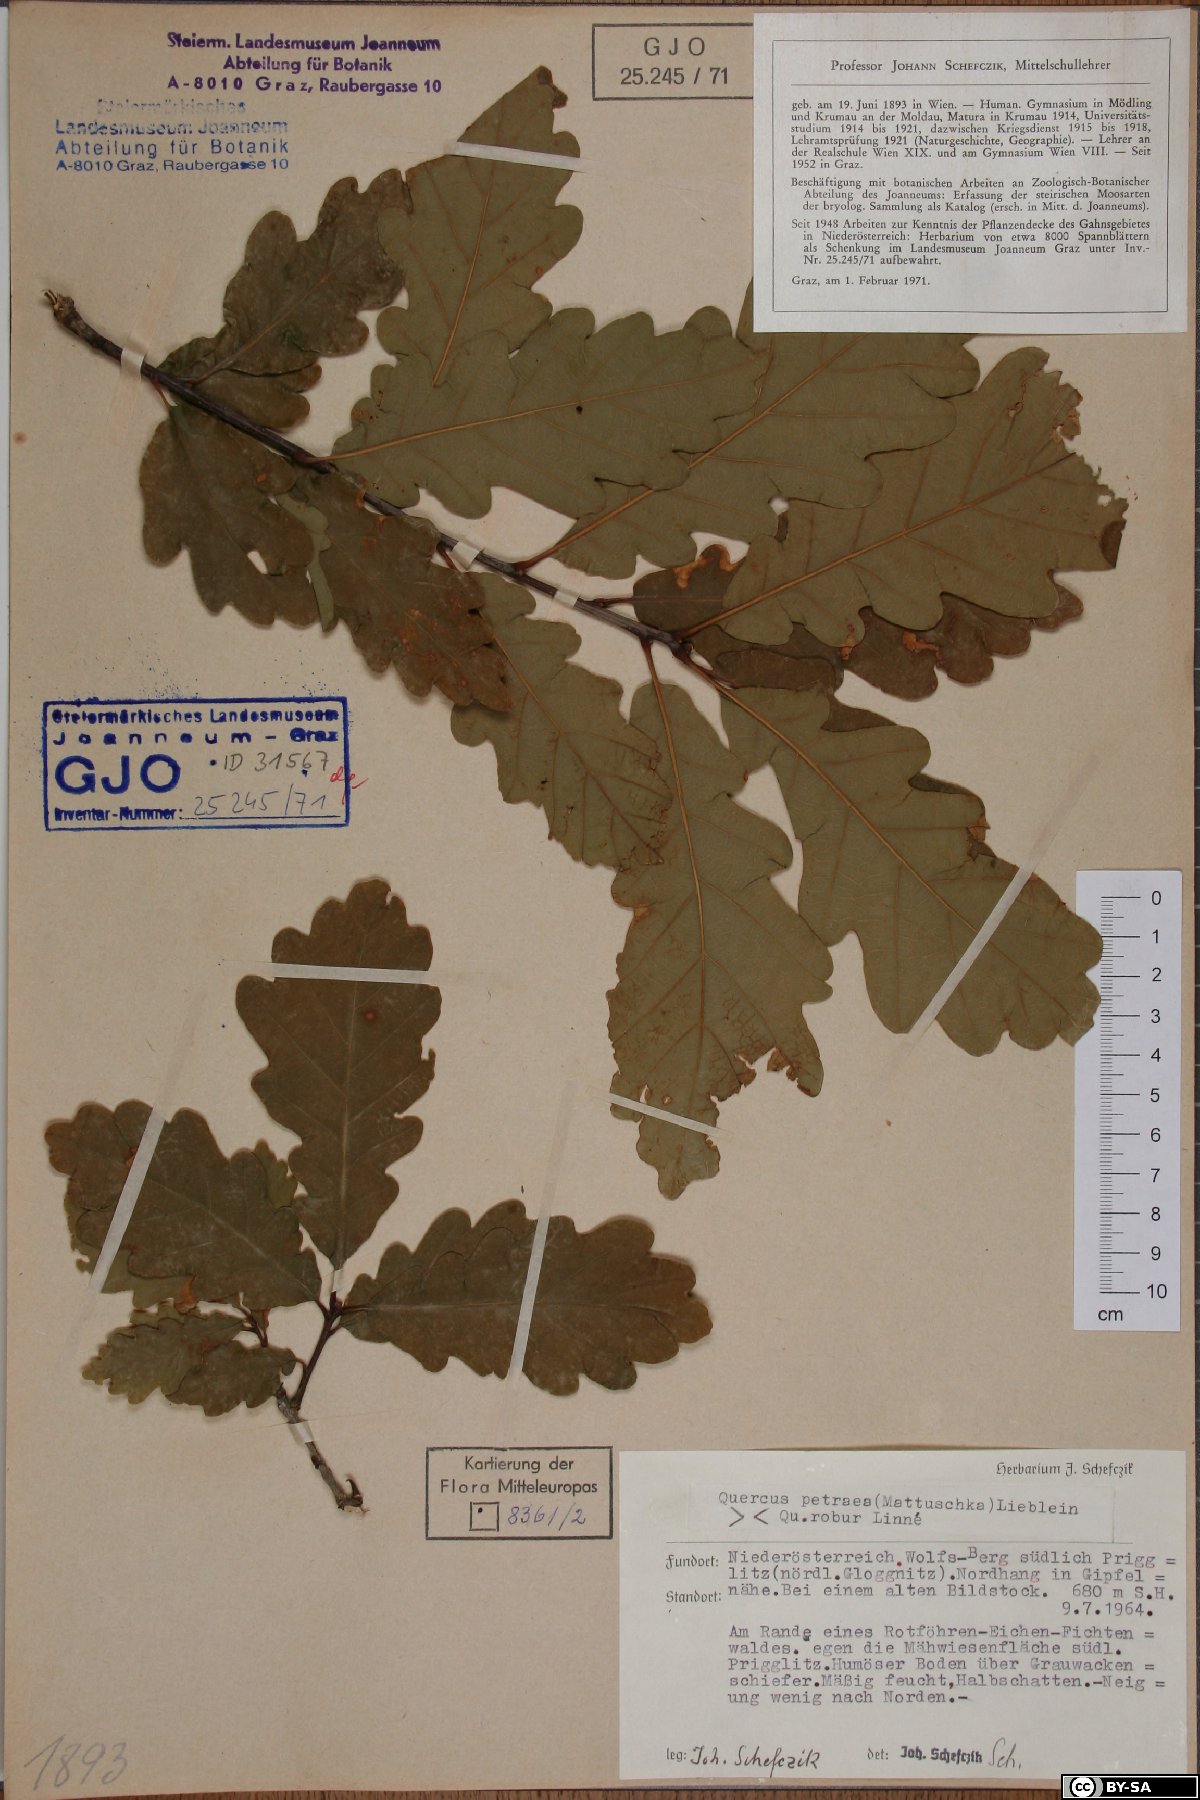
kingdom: Plantae
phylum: Tracheophyta
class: Magnoliopsida
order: Fagales
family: Fagaceae
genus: Quercus
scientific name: Quercus petraea
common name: Sessile oak
